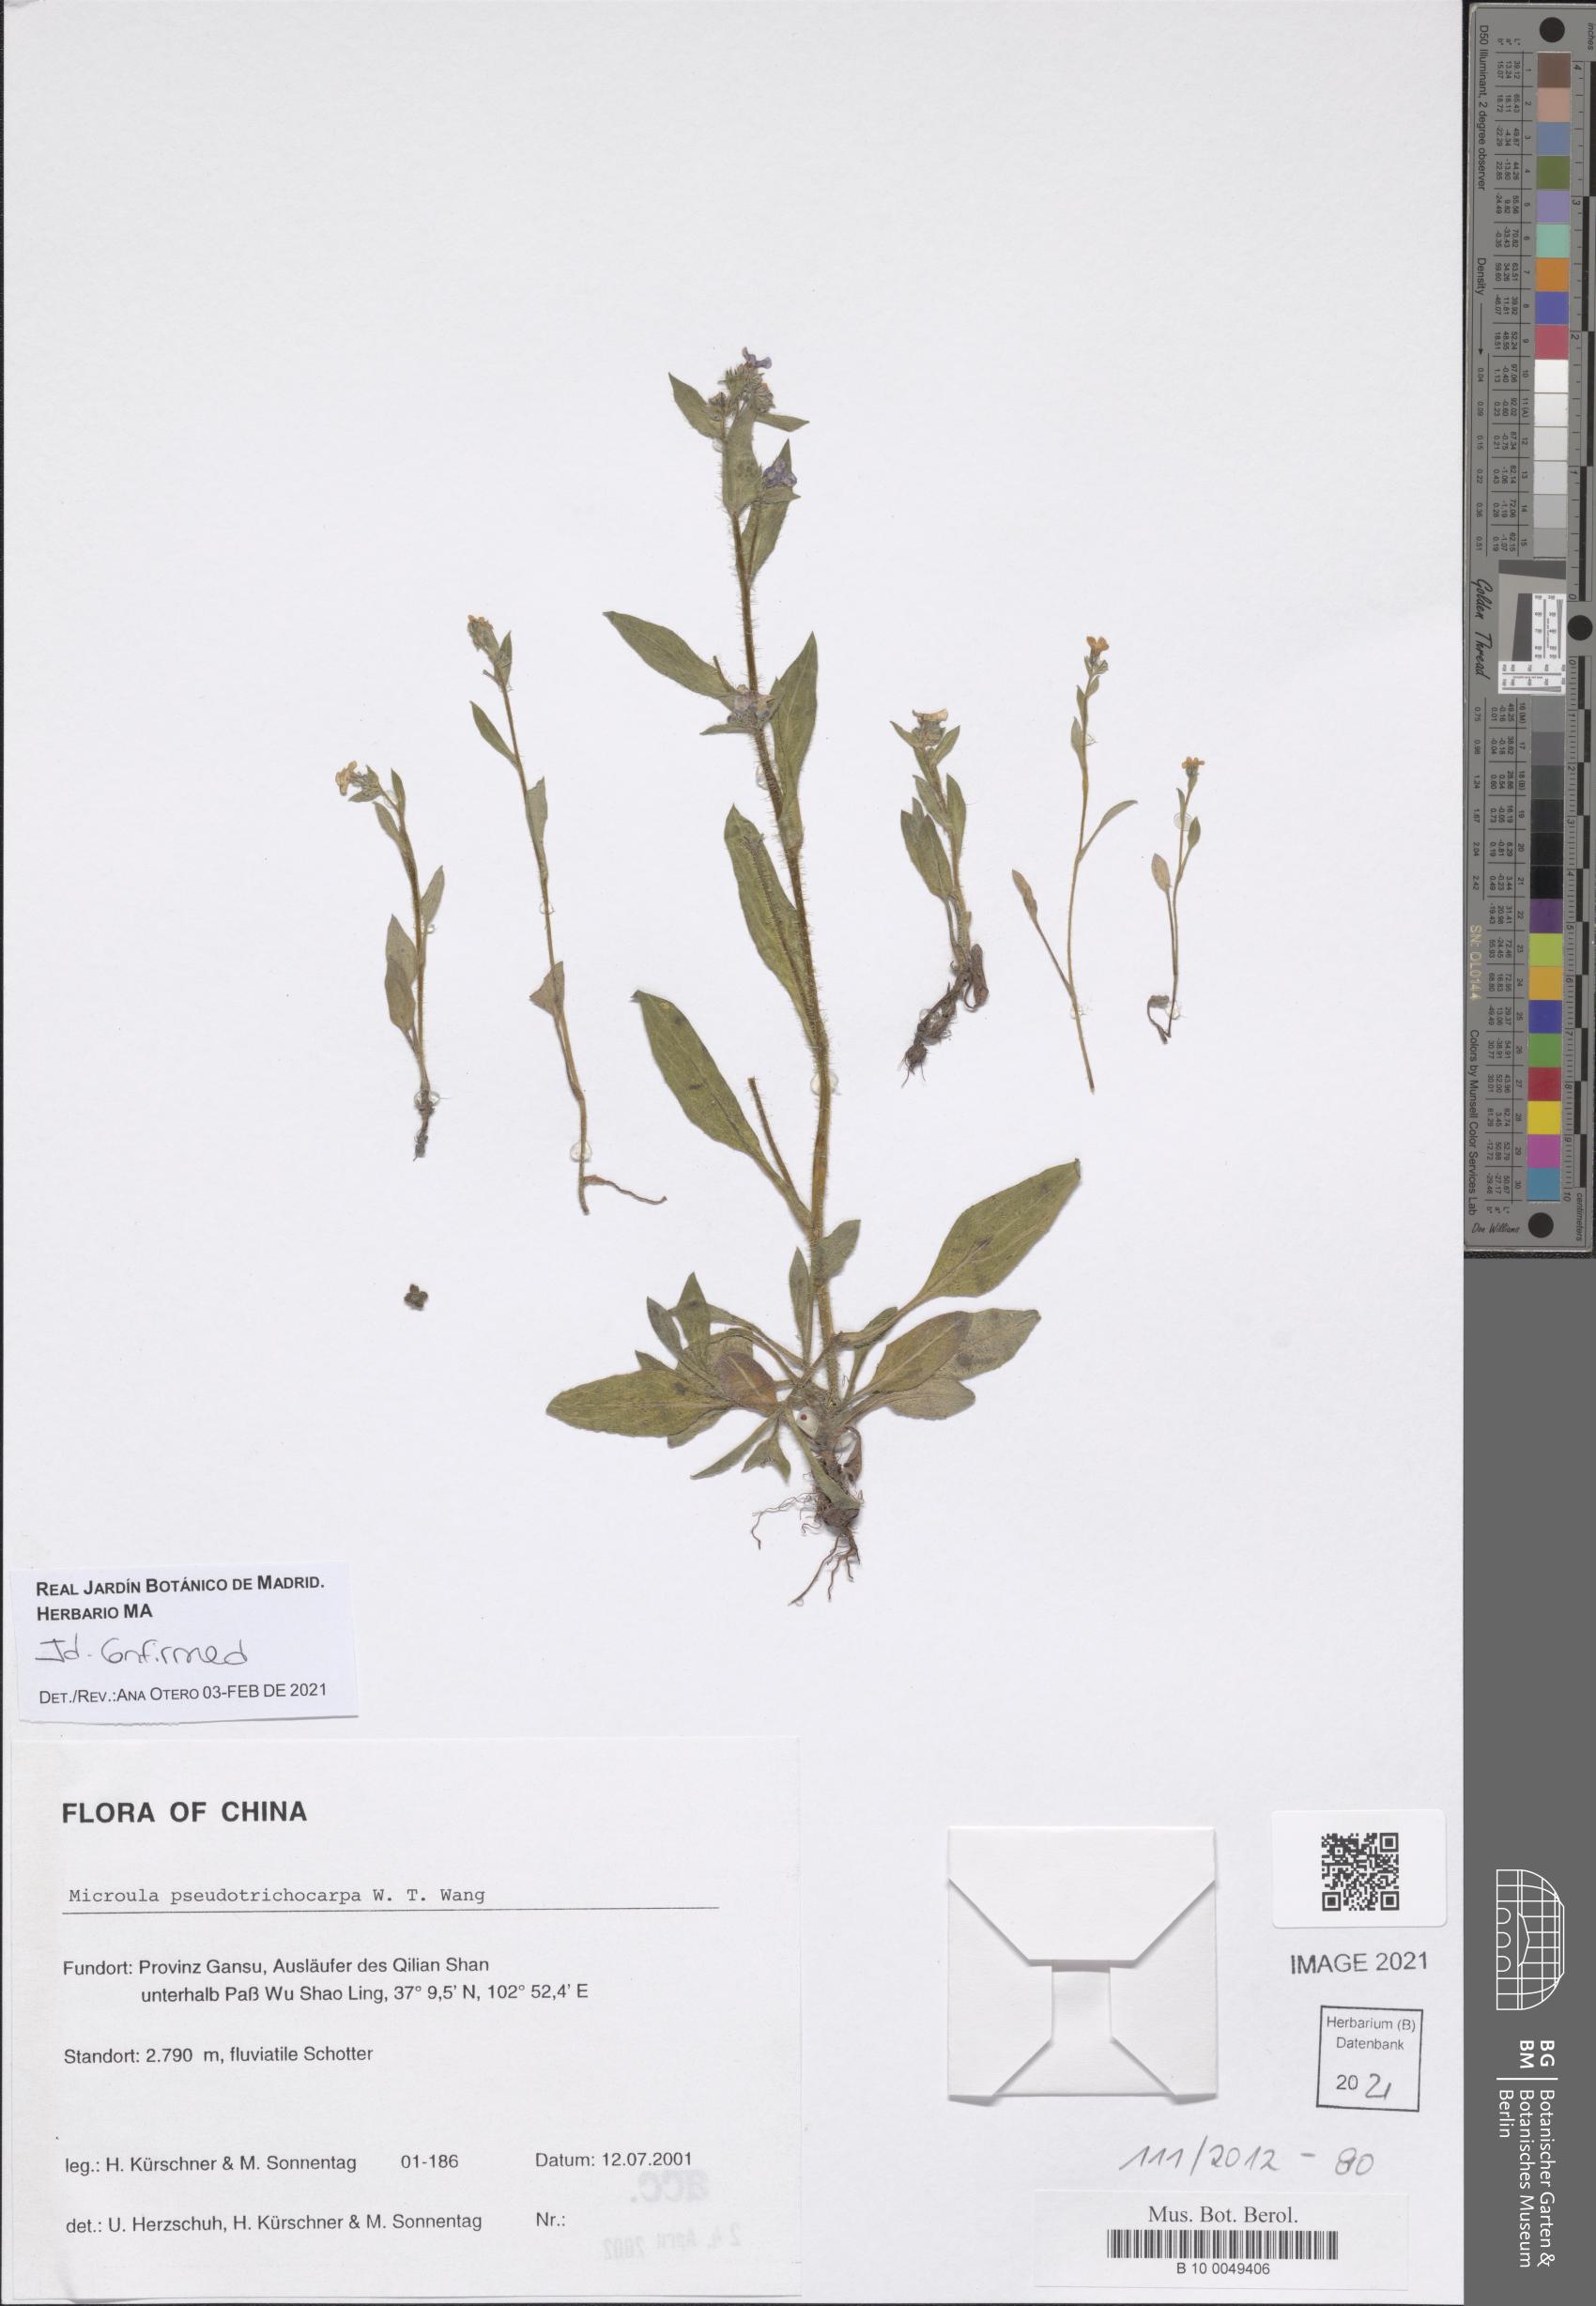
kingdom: Plantae
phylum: Tracheophyta
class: Magnoliopsida
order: Boraginales
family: Boraginaceae
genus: Microula
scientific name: Microula pseudotrichocarpa
